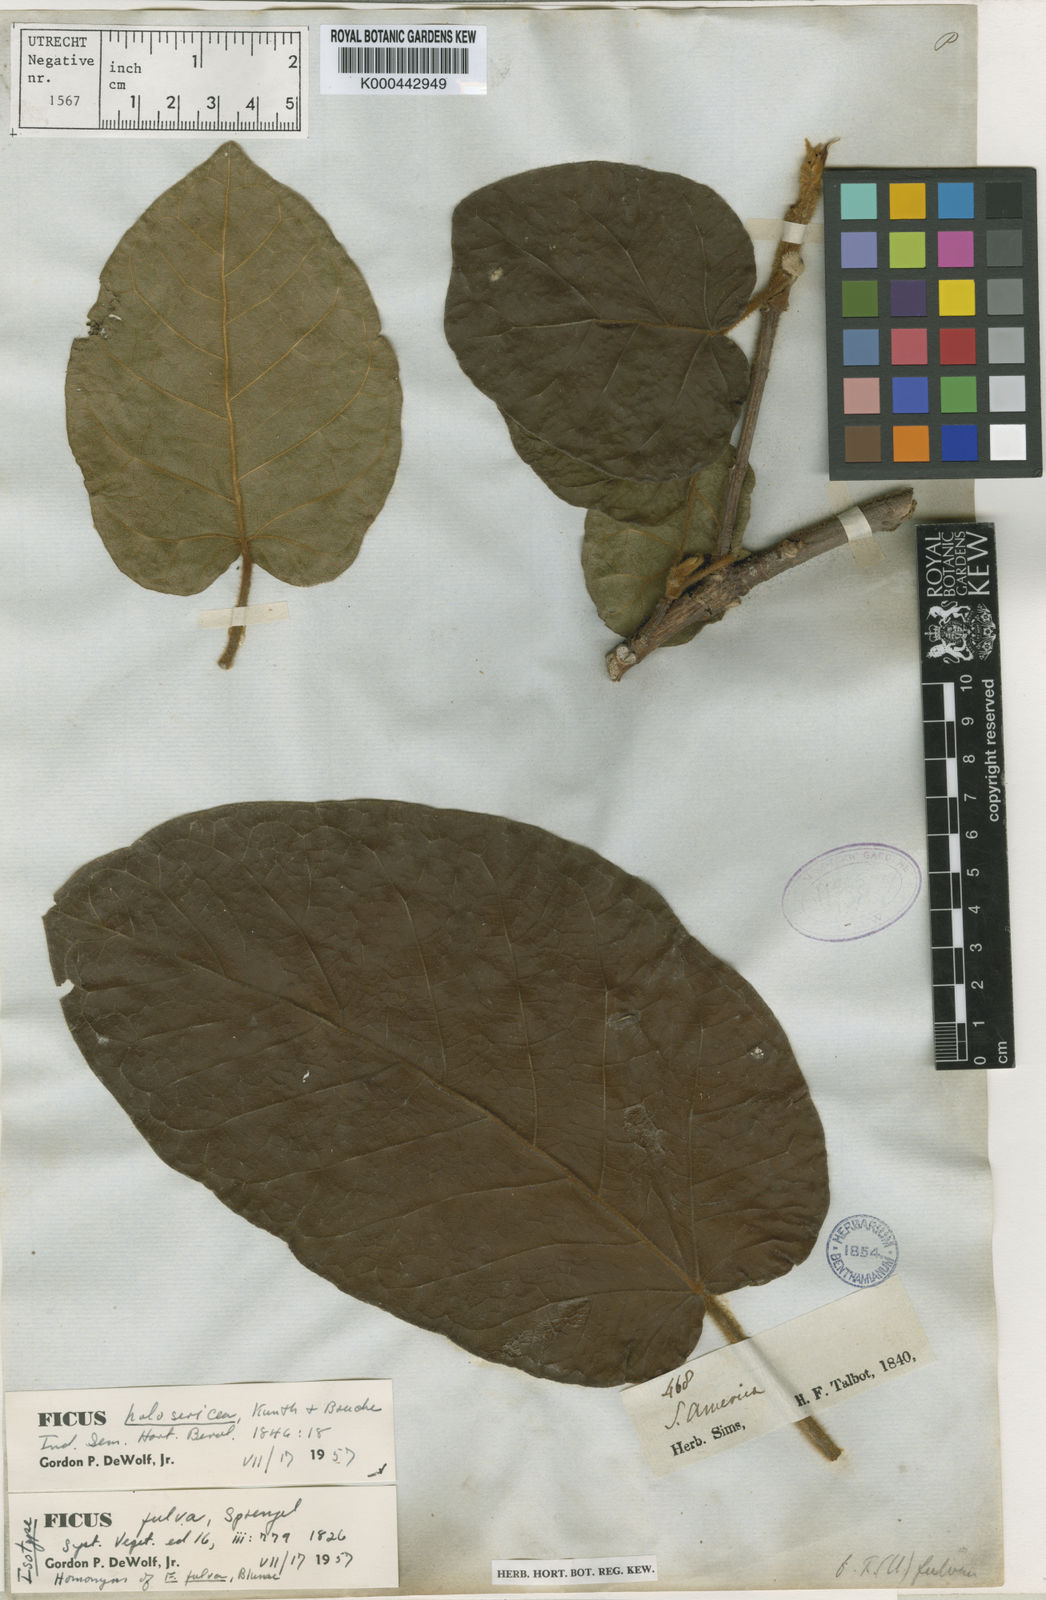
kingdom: Plantae
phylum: Tracheophyta
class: Magnoliopsida
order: Rosales
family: Moraceae
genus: Ficus
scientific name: Ficus holosericea
